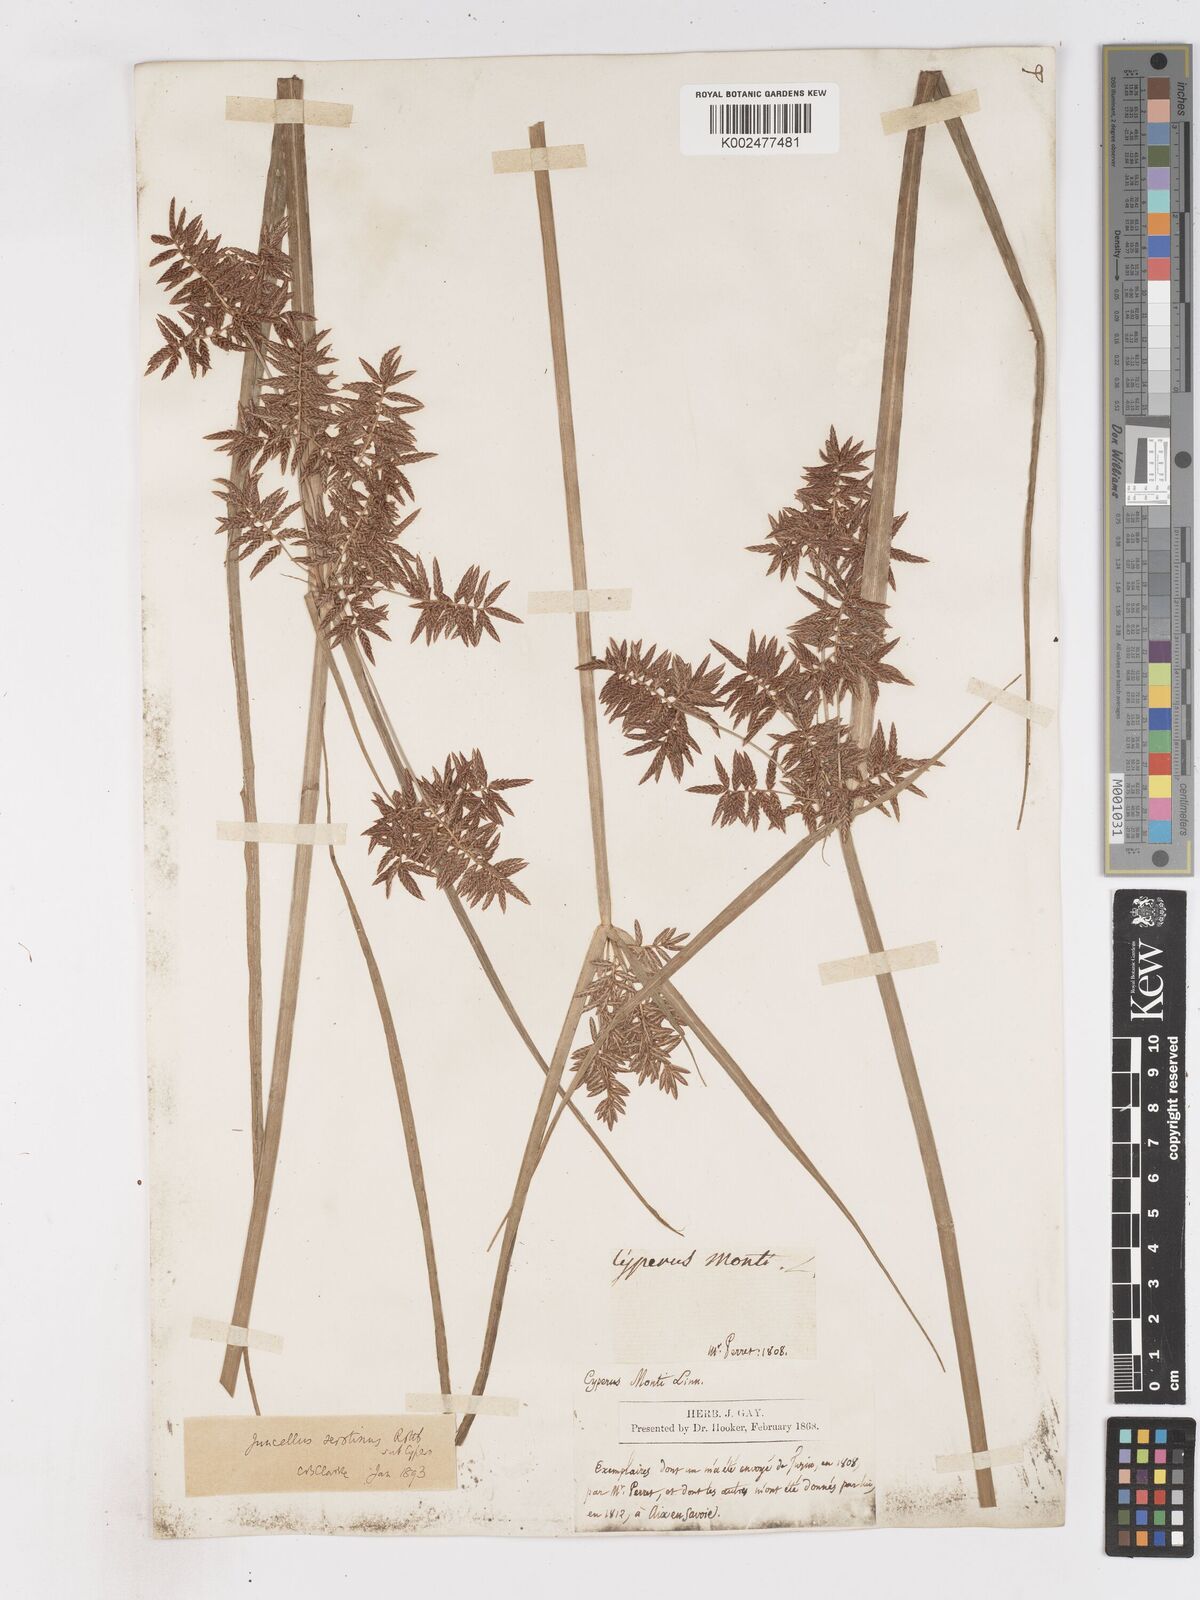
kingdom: Plantae
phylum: Tracheophyta
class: Liliopsida
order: Poales
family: Cyperaceae
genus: Cyperus
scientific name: Cyperus serotinus
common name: Tidalmarsh flatsedge
